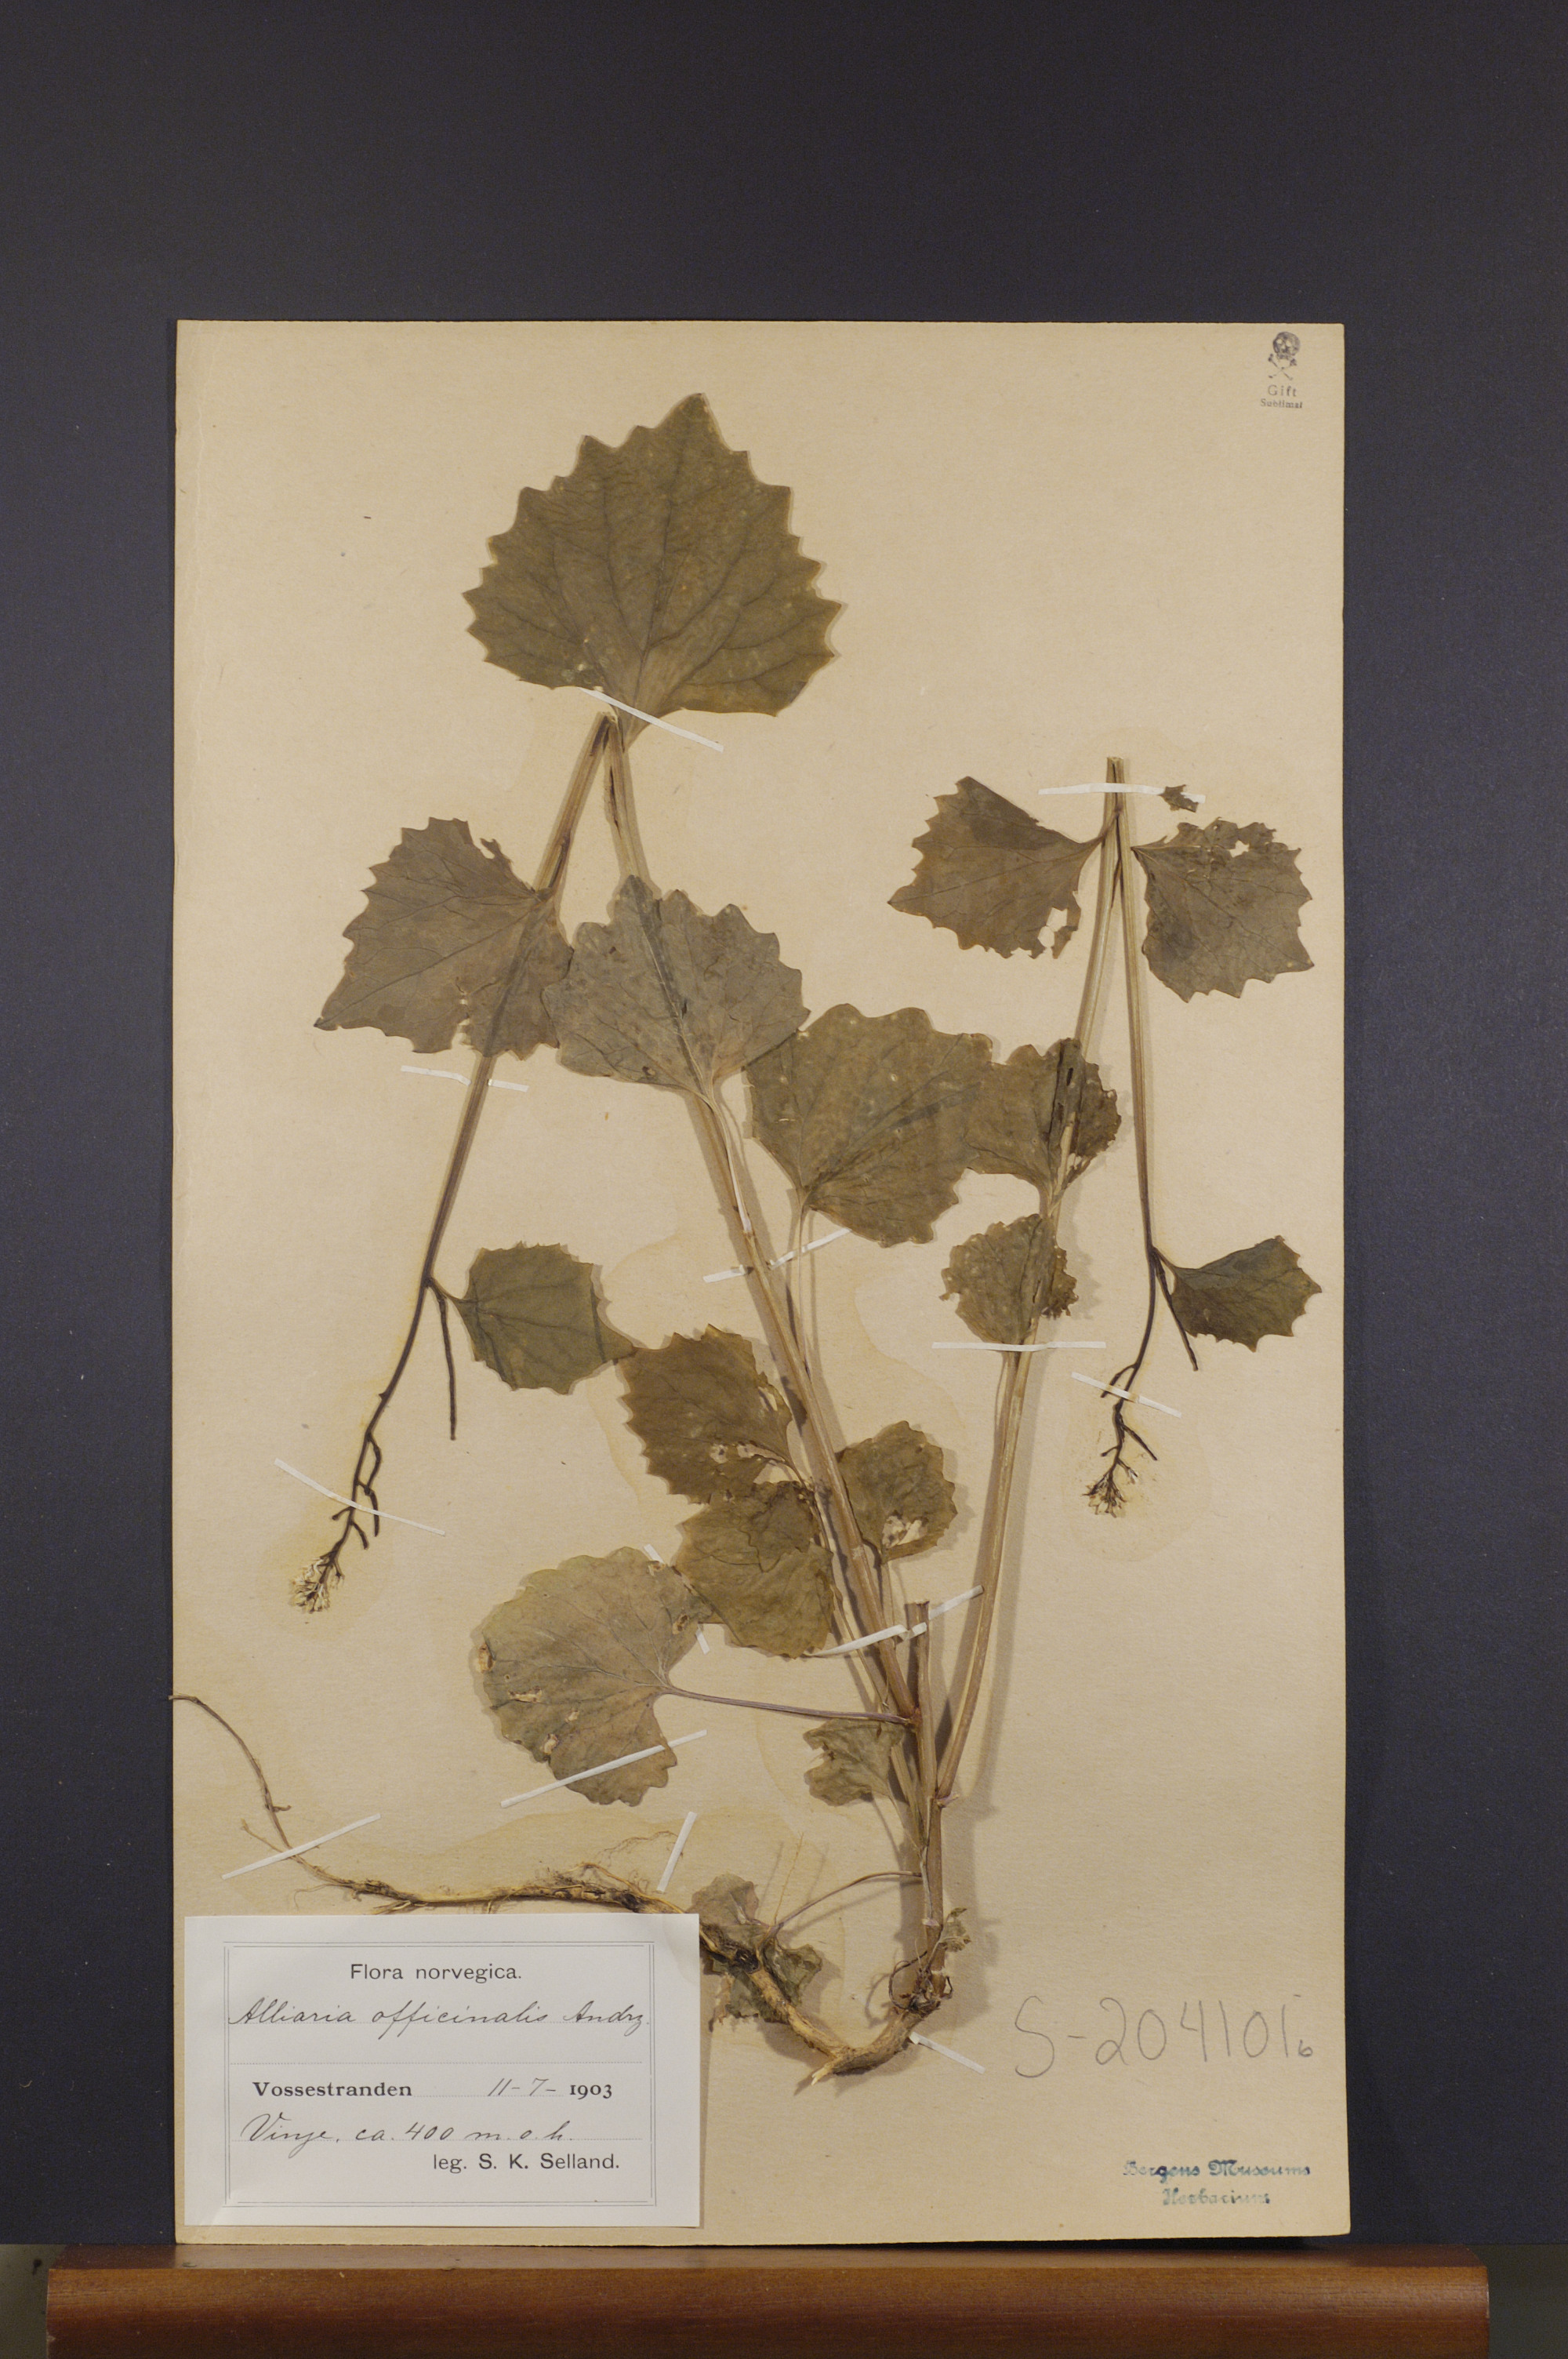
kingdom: Plantae
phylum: Tracheophyta
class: Magnoliopsida
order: Brassicales
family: Brassicaceae
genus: Alliaria
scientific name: Alliaria petiolata
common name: Garlic mustard
